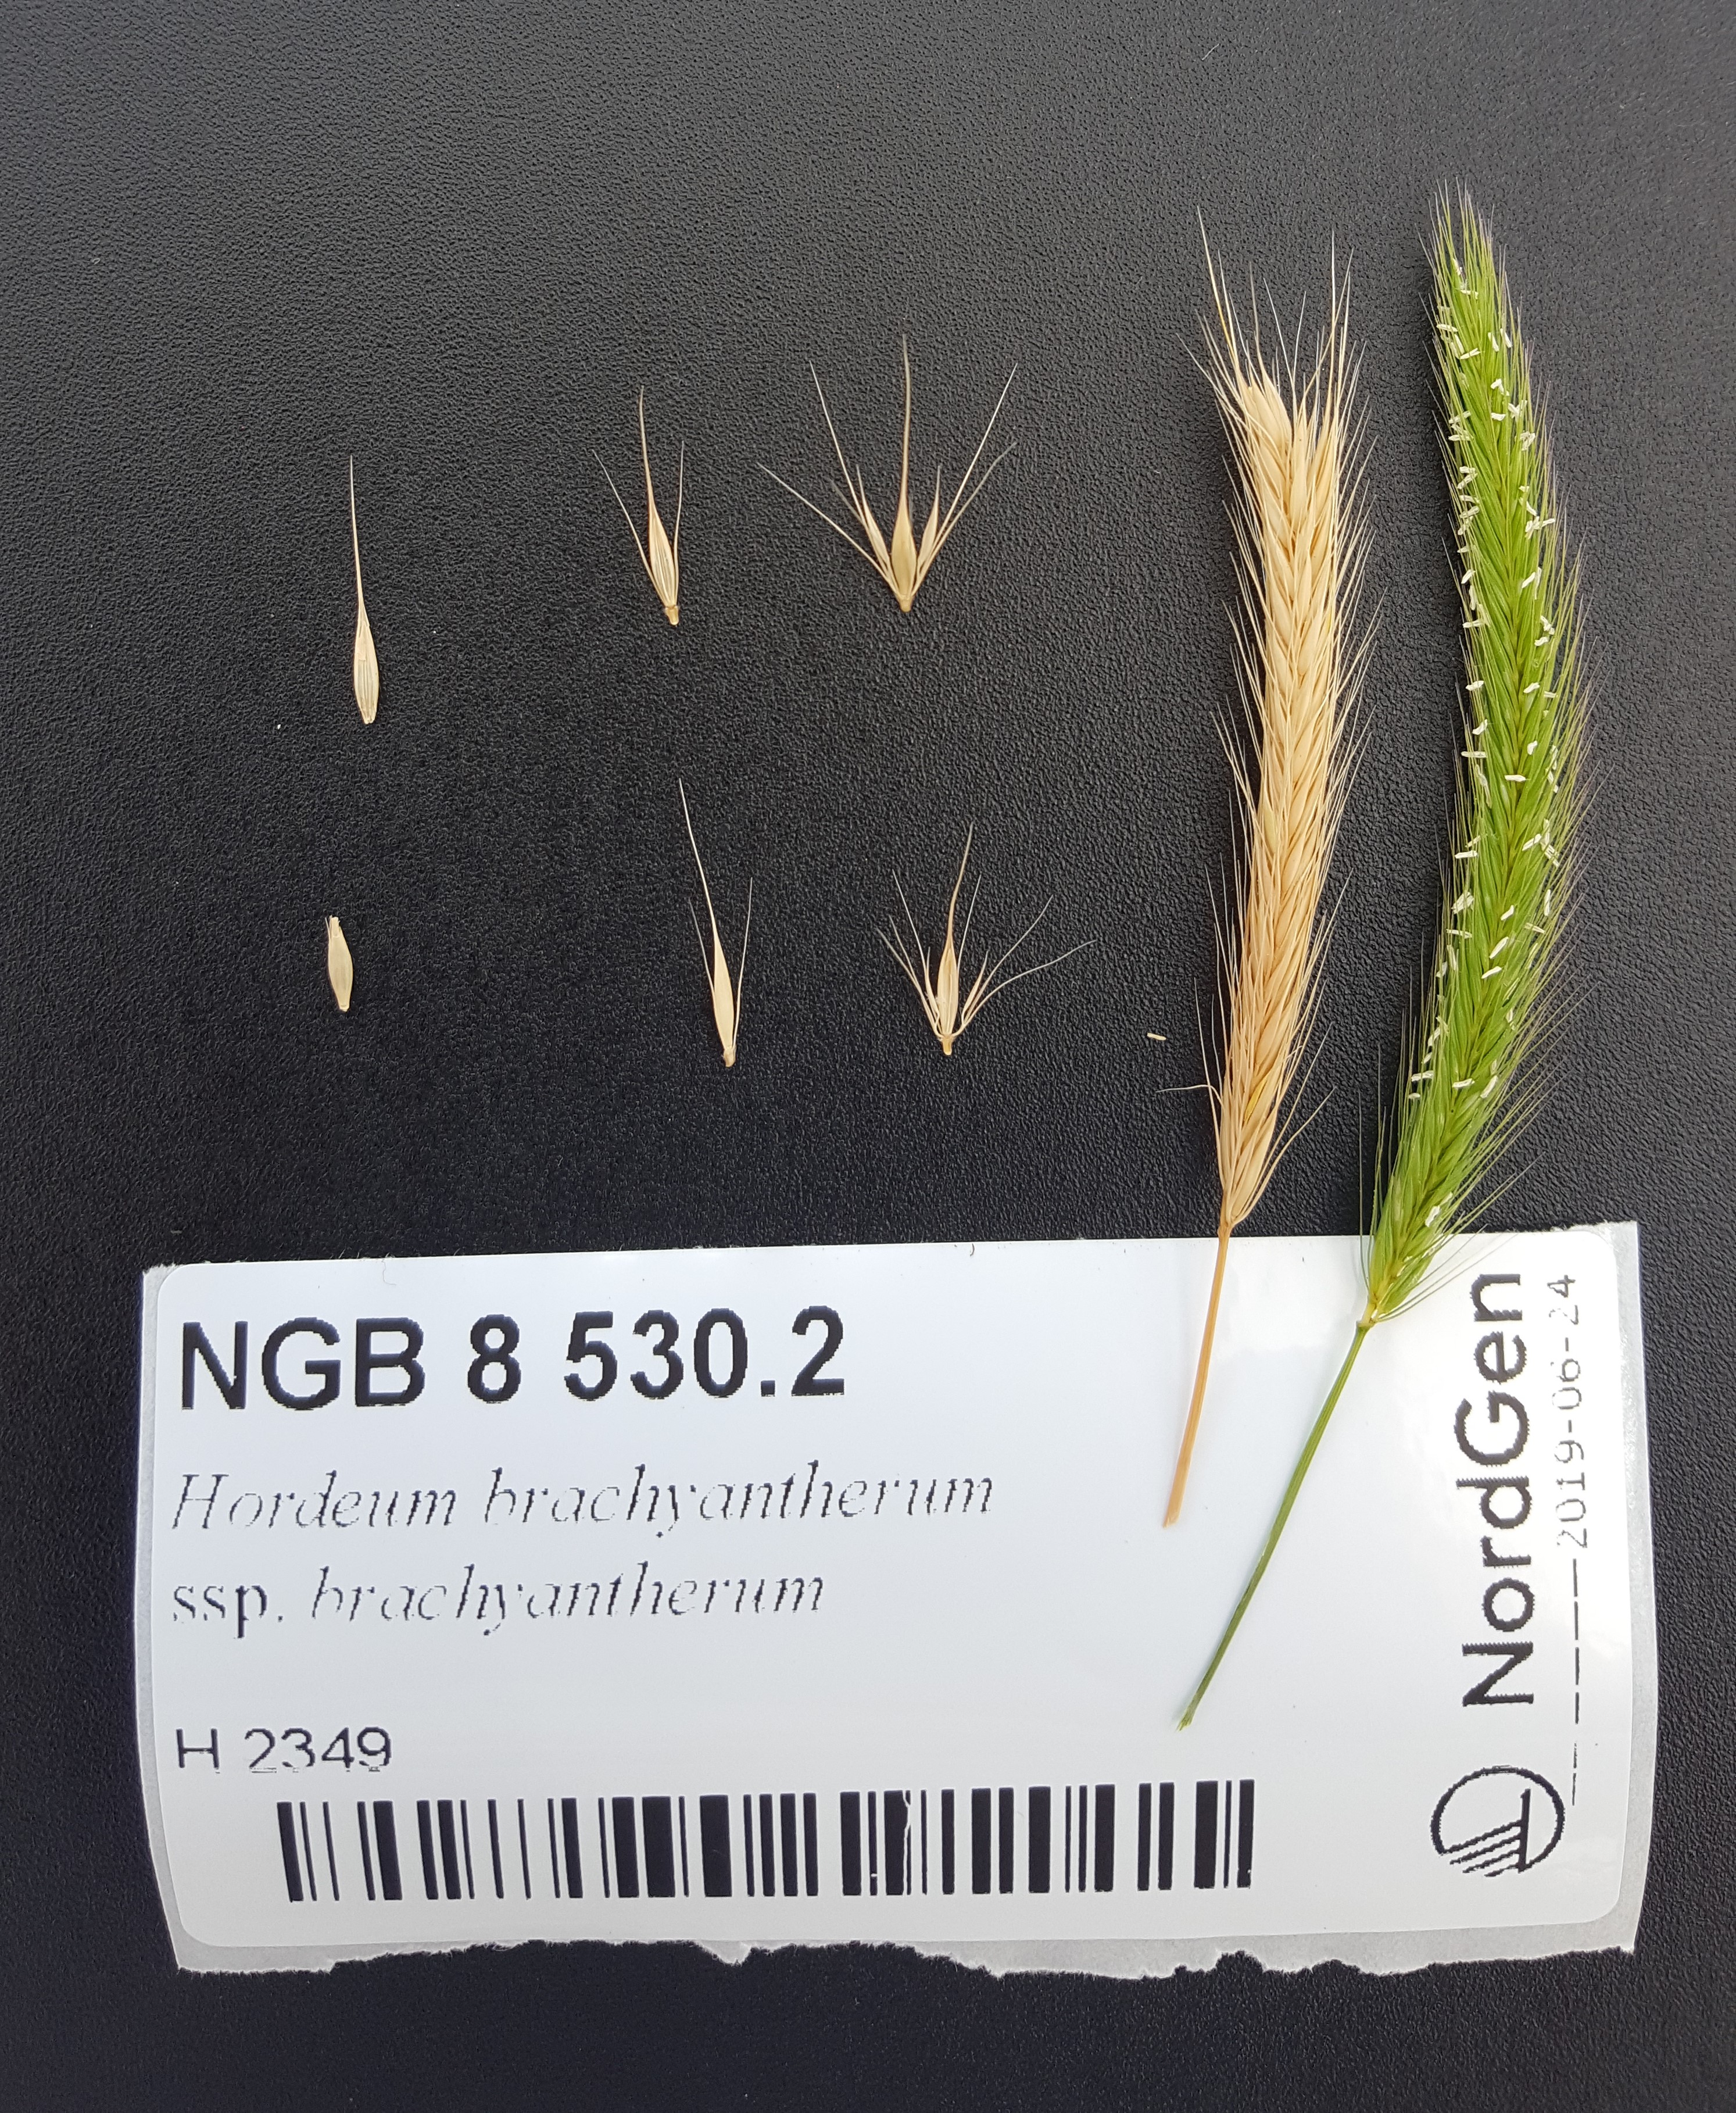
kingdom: Plantae
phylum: Tracheophyta
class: Liliopsida
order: Poales
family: Poaceae
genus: Hordeum
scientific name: Hordeum brachyantherum
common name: Meadow barley
